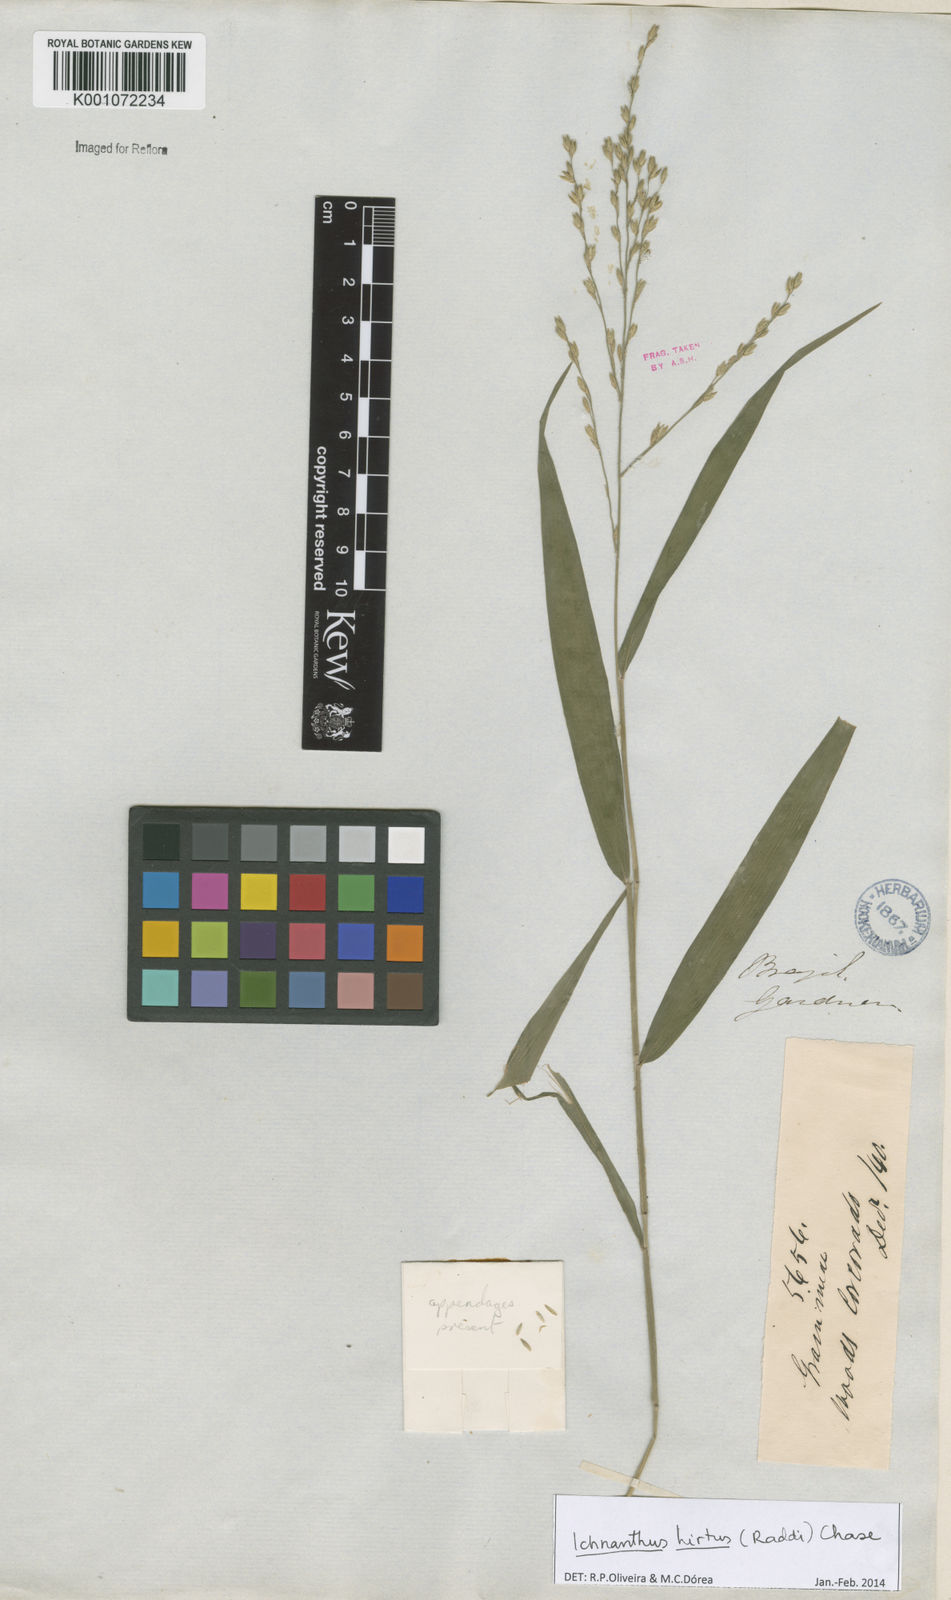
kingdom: Plantae
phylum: Tracheophyta
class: Liliopsida
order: Poales
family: Poaceae
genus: Ichnanthus
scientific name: Ichnanthus hirtus
